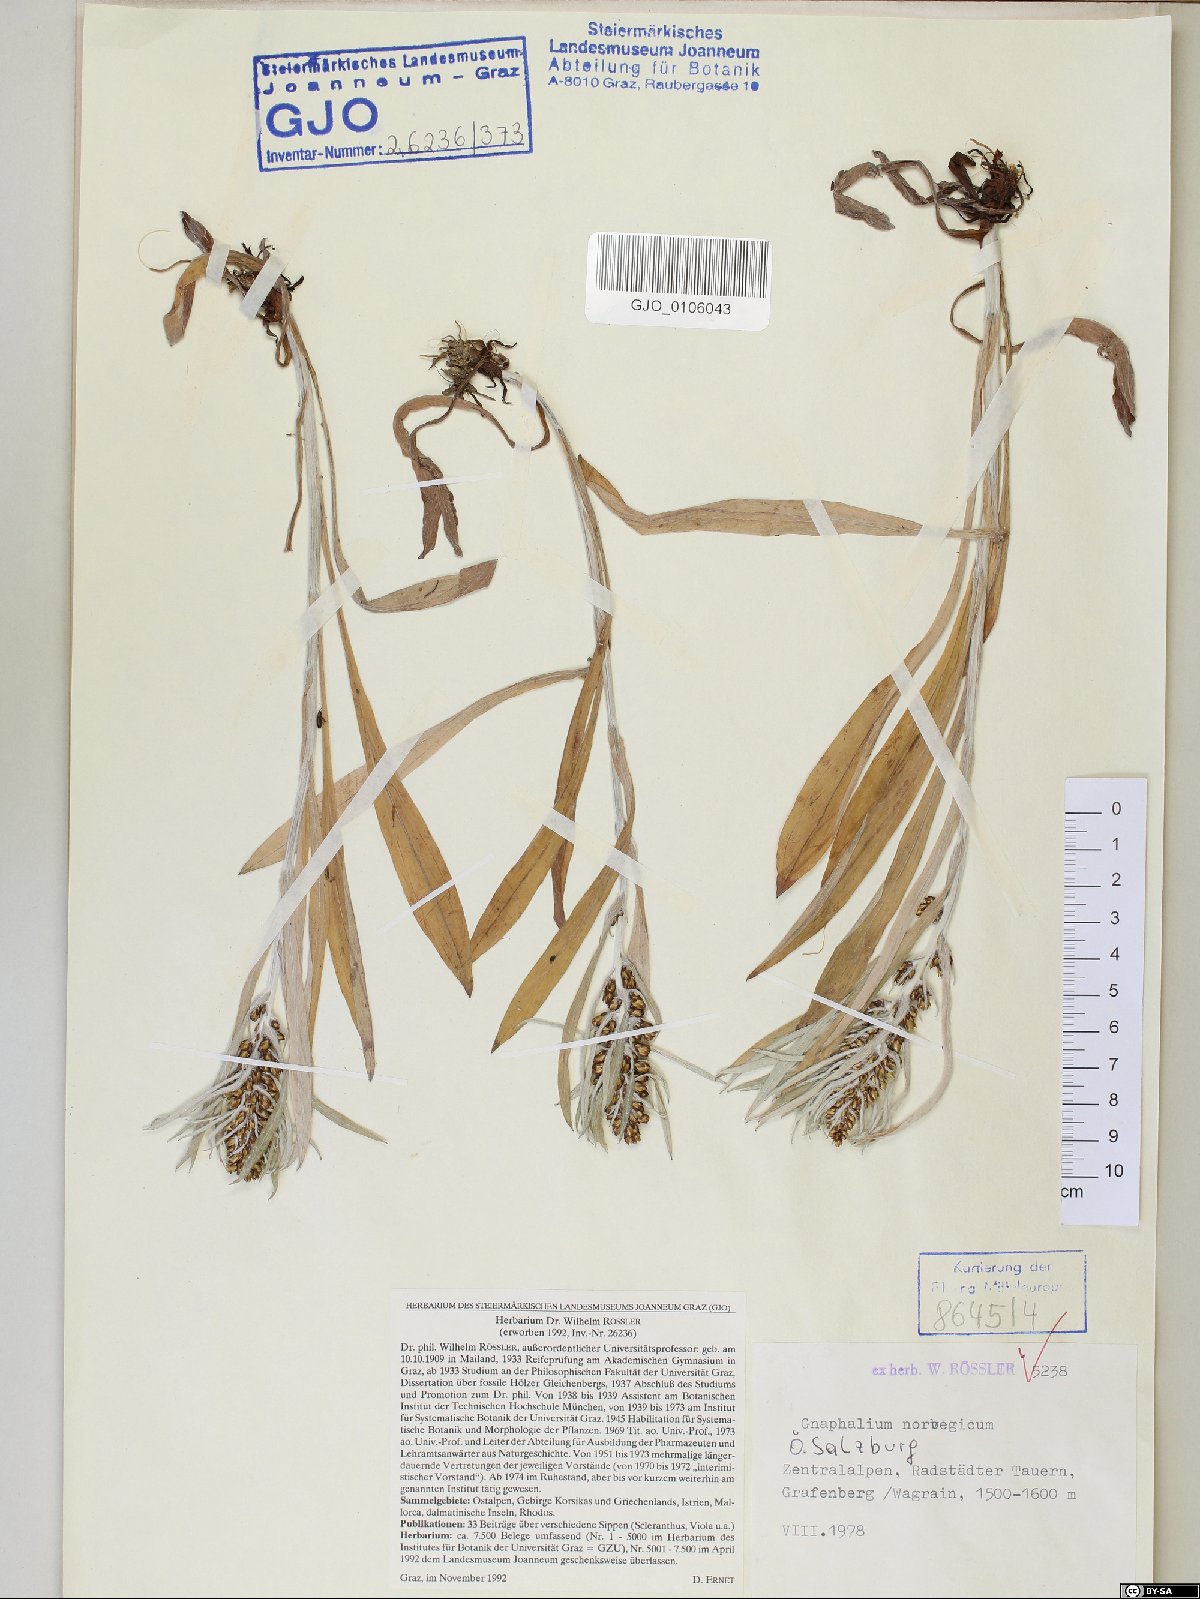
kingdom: Plantae
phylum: Tracheophyta
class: Magnoliopsida
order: Asterales
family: Asteraceae
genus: Omalotheca
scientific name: Omalotheca norvegica
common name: Norwegian arctic-cudweed
